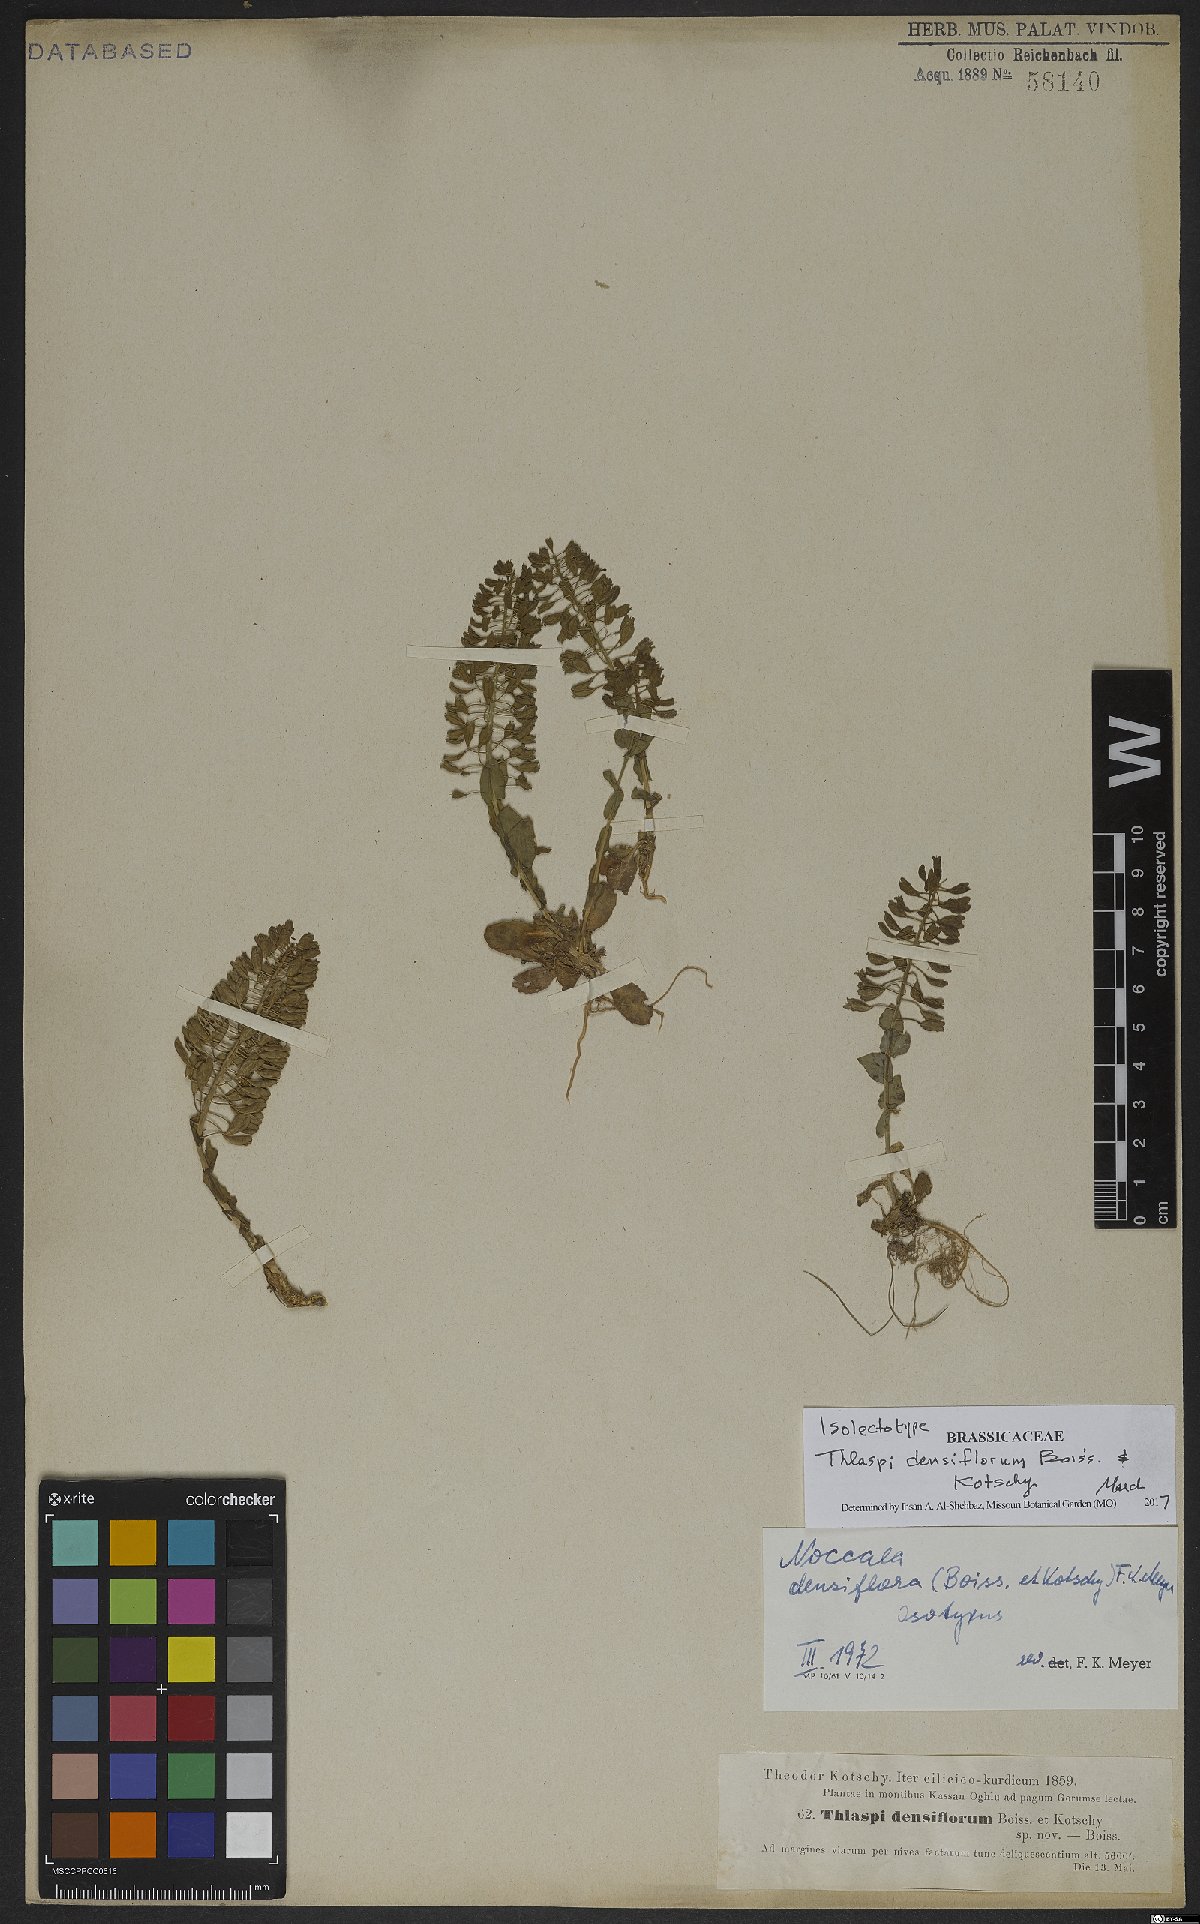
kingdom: Plantae
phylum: Tracheophyta
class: Magnoliopsida
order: Brassicales
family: Brassicaceae
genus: Noccaea
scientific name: Noccaea densiflora
